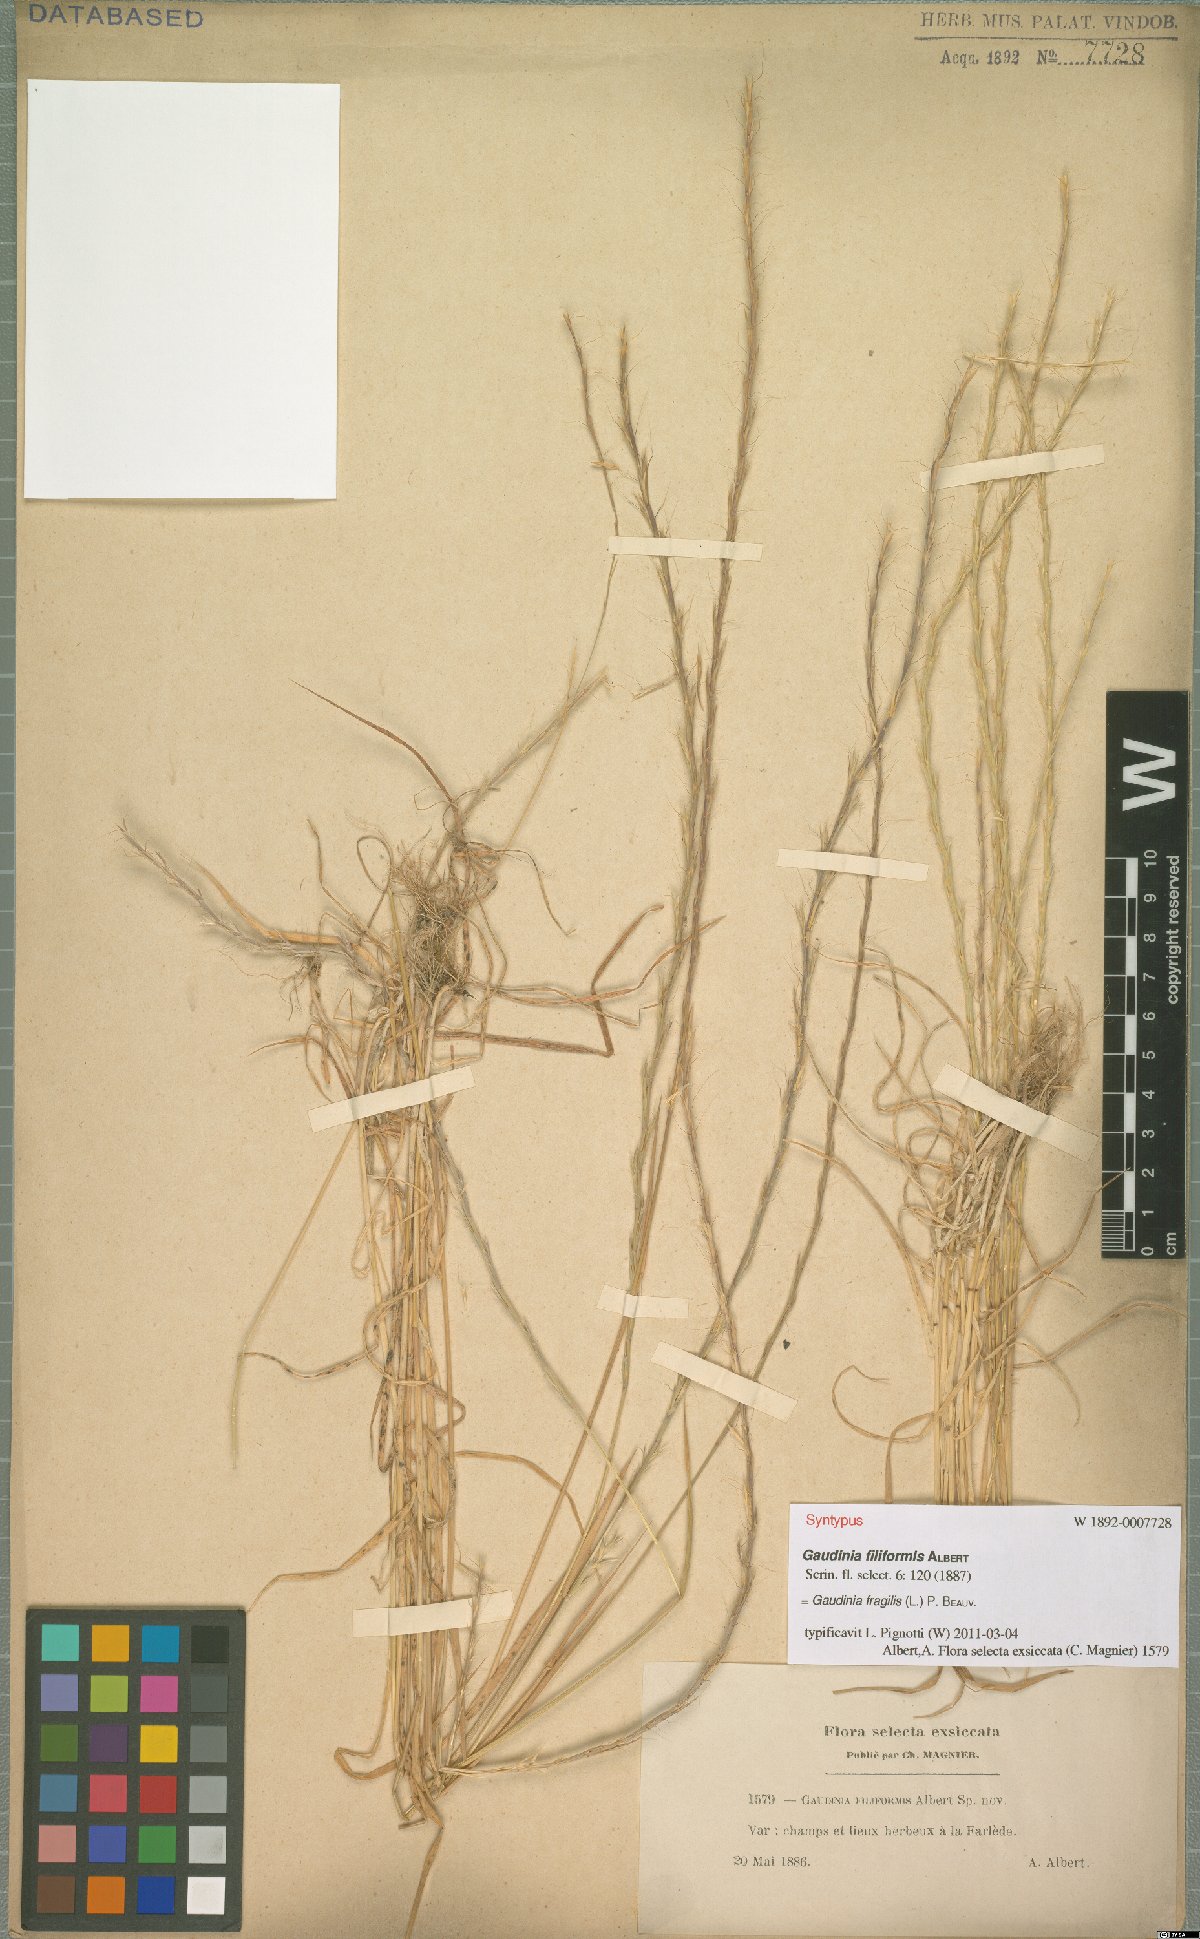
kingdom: Plantae
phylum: Tracheophyta
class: Liliopsida
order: Poales
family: Poaceae
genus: Gaudinia
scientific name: Gaudinia fragilis
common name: French oat-grass
